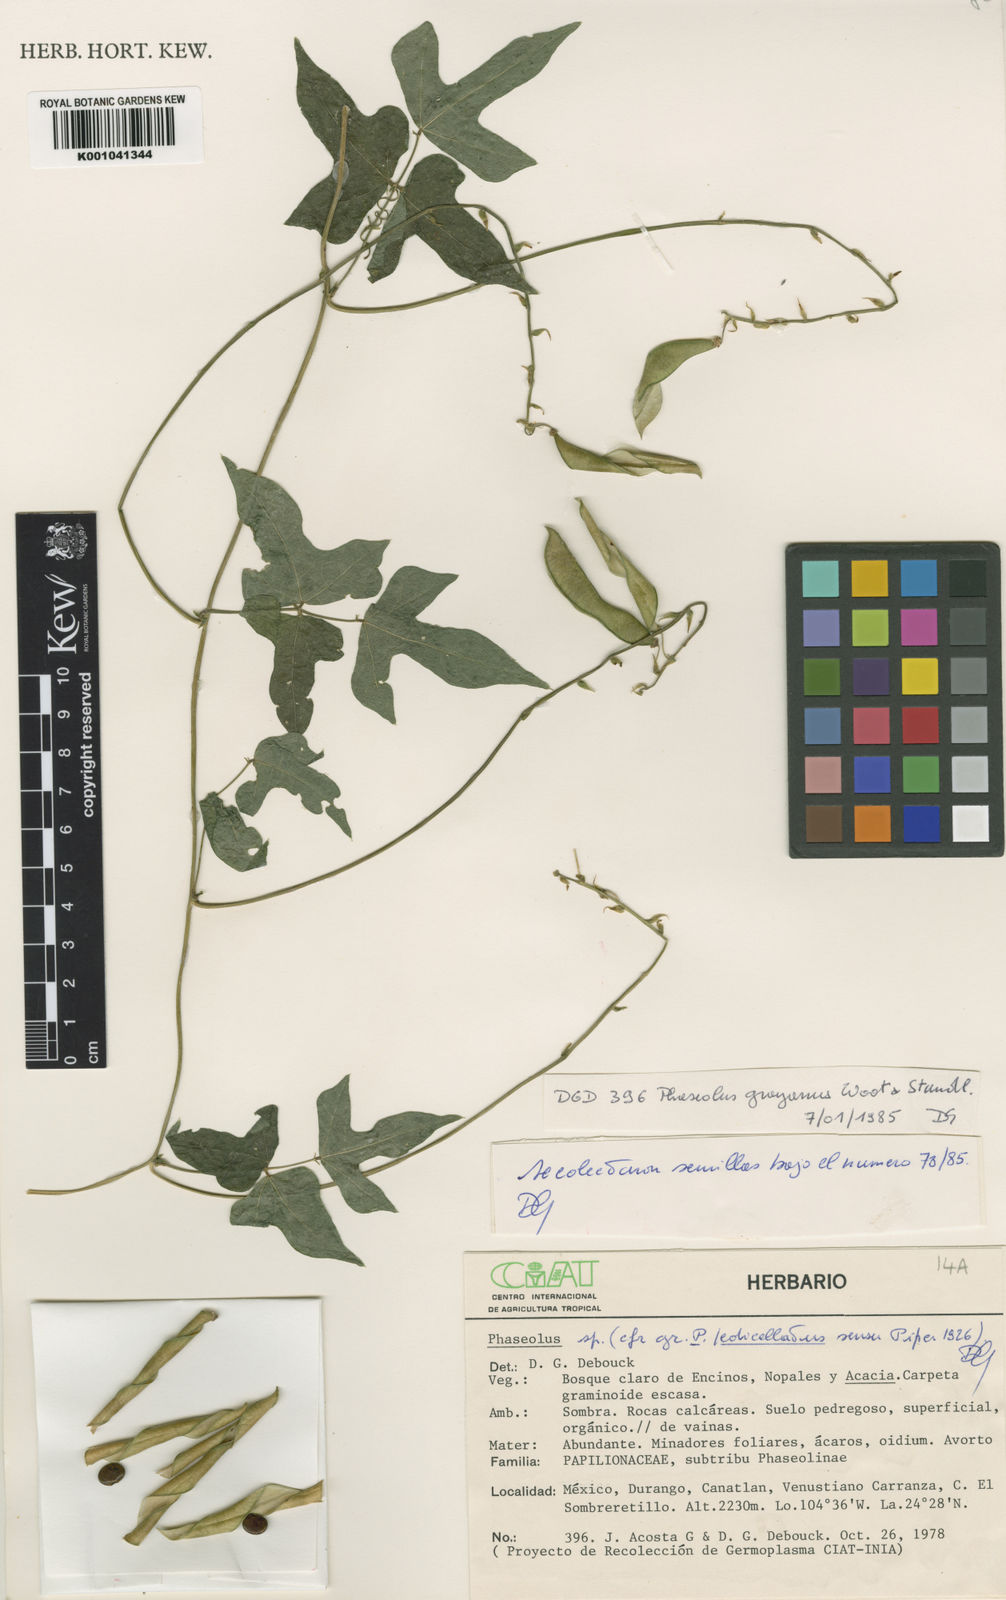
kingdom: Plantae
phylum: Tracheophyta
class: Magnoliopsida
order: Fabales
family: Fabaceae
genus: Phaseolus
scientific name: Phaseolus pedicellatus
